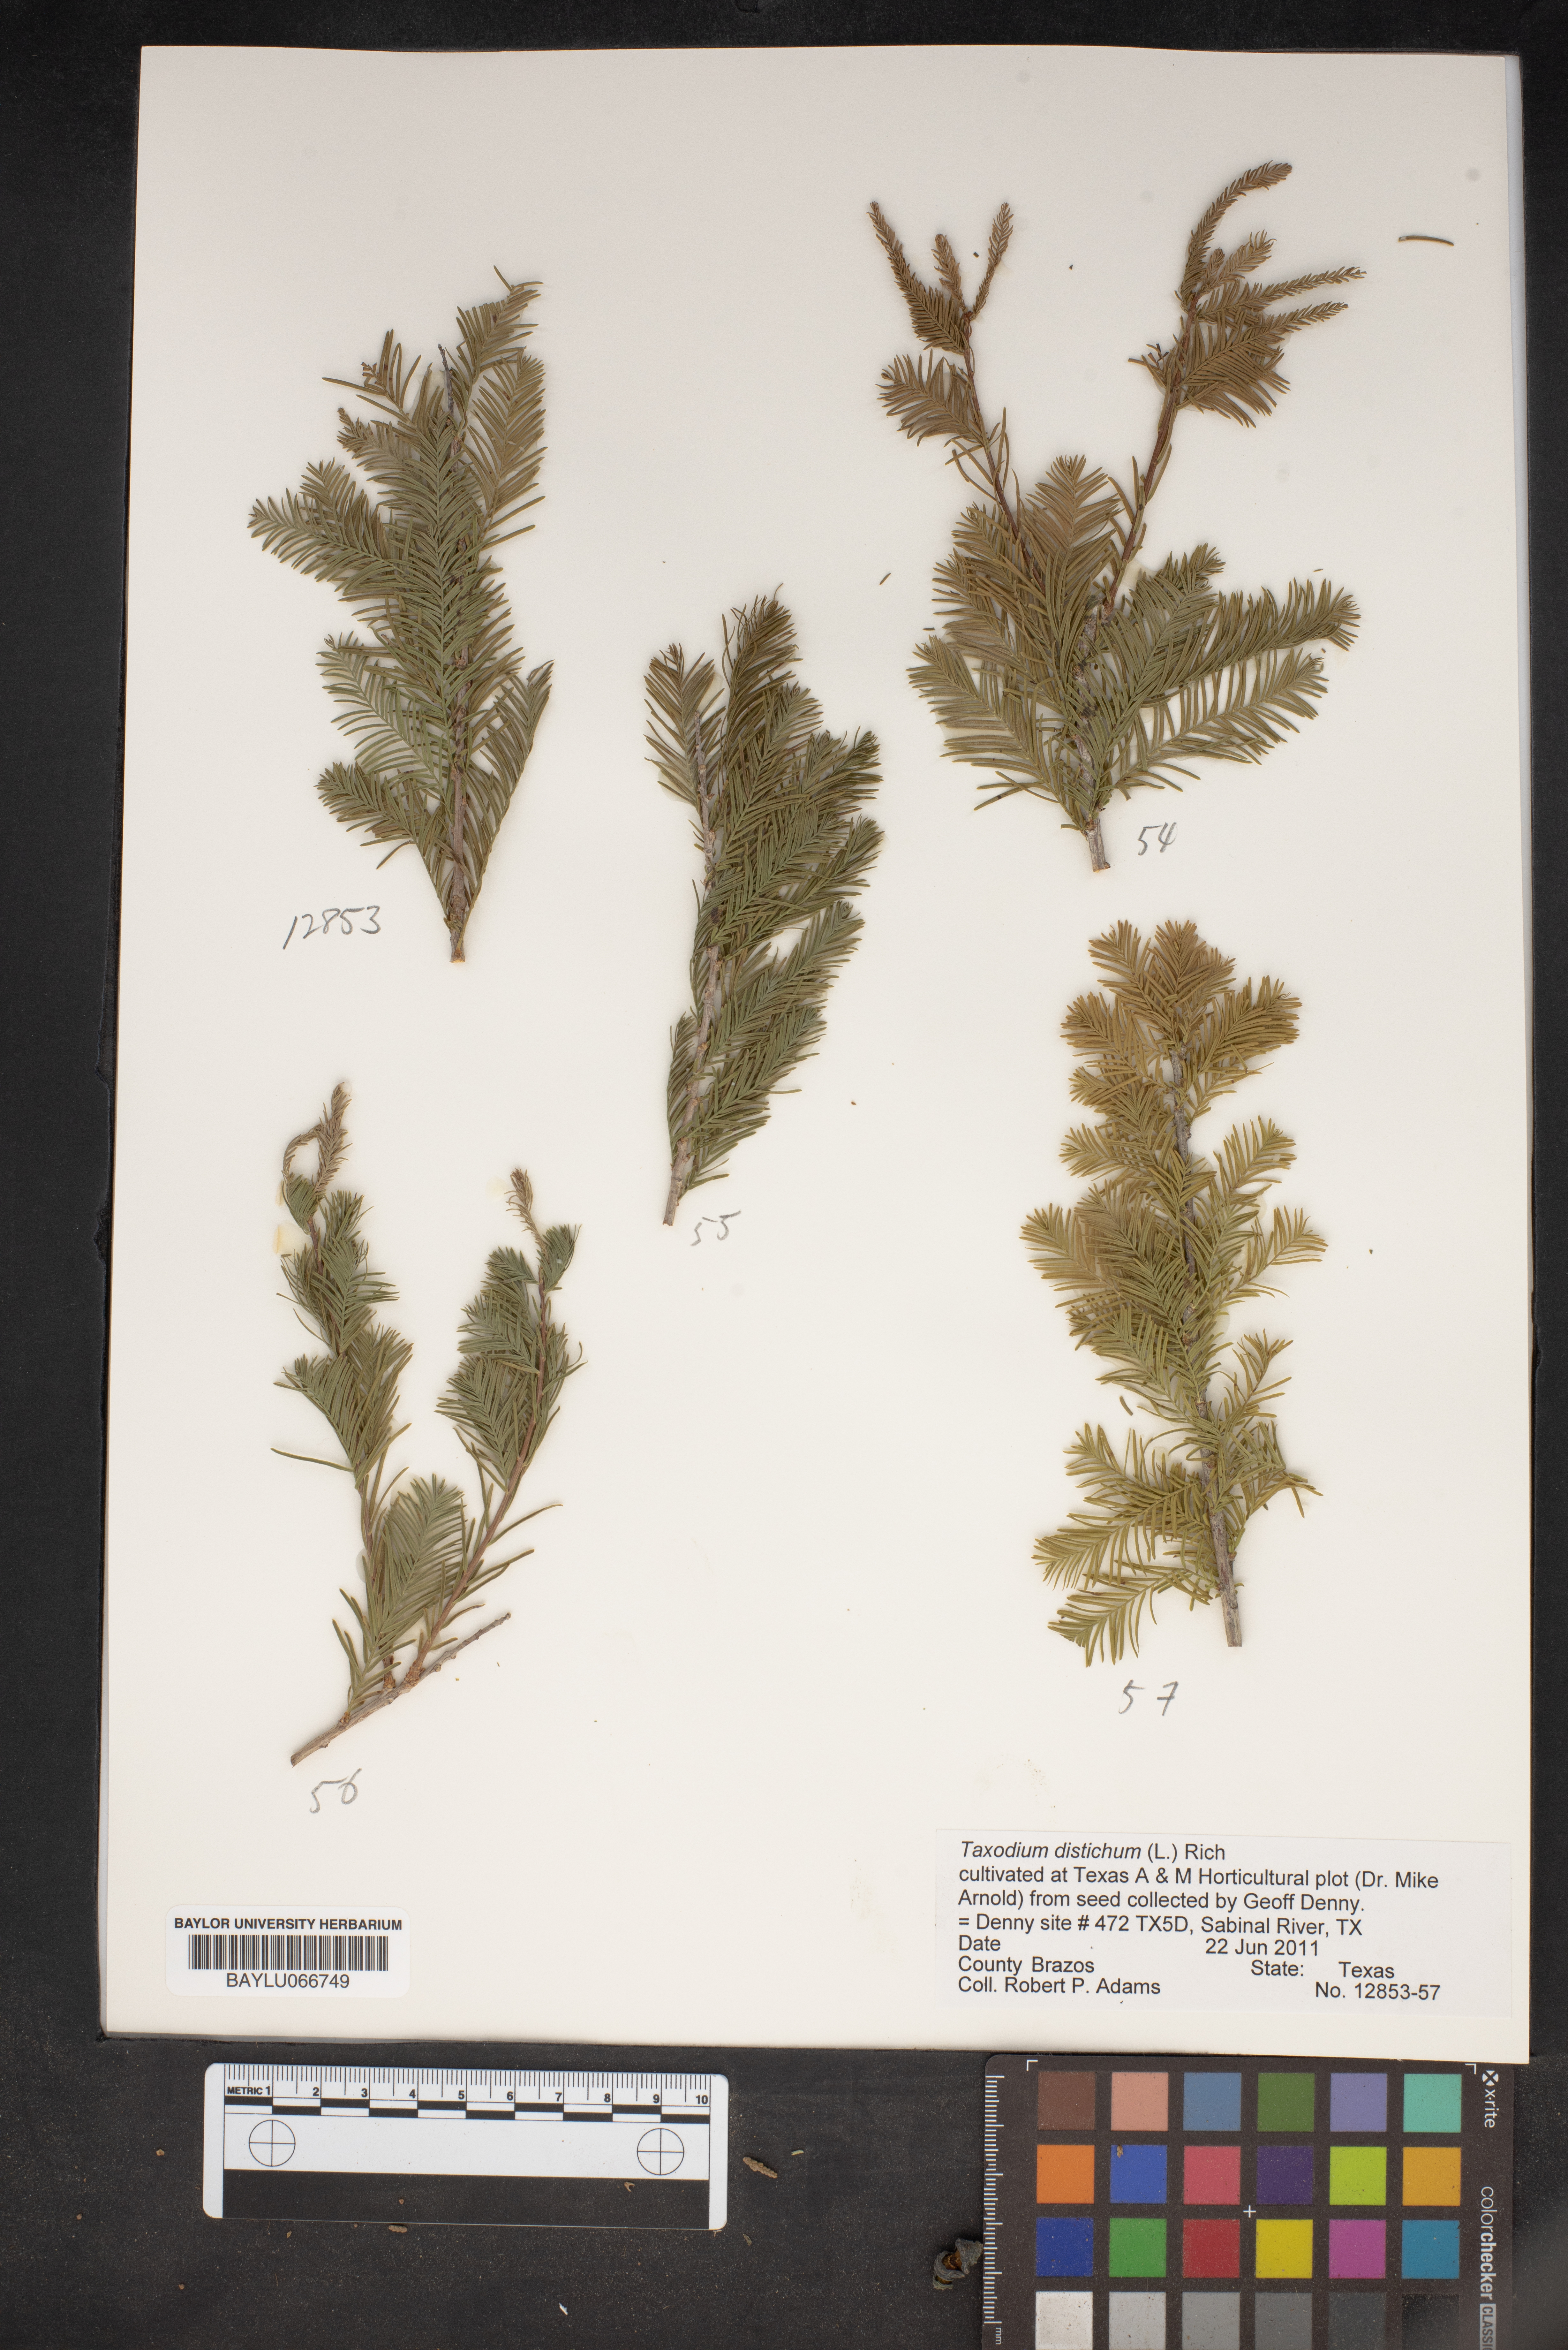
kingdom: Plantae
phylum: Tracheophyta
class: Pinopsida
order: Pinales
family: Cupressaceae
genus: Taxodium
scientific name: Taxodium distichum
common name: Bald cypress
